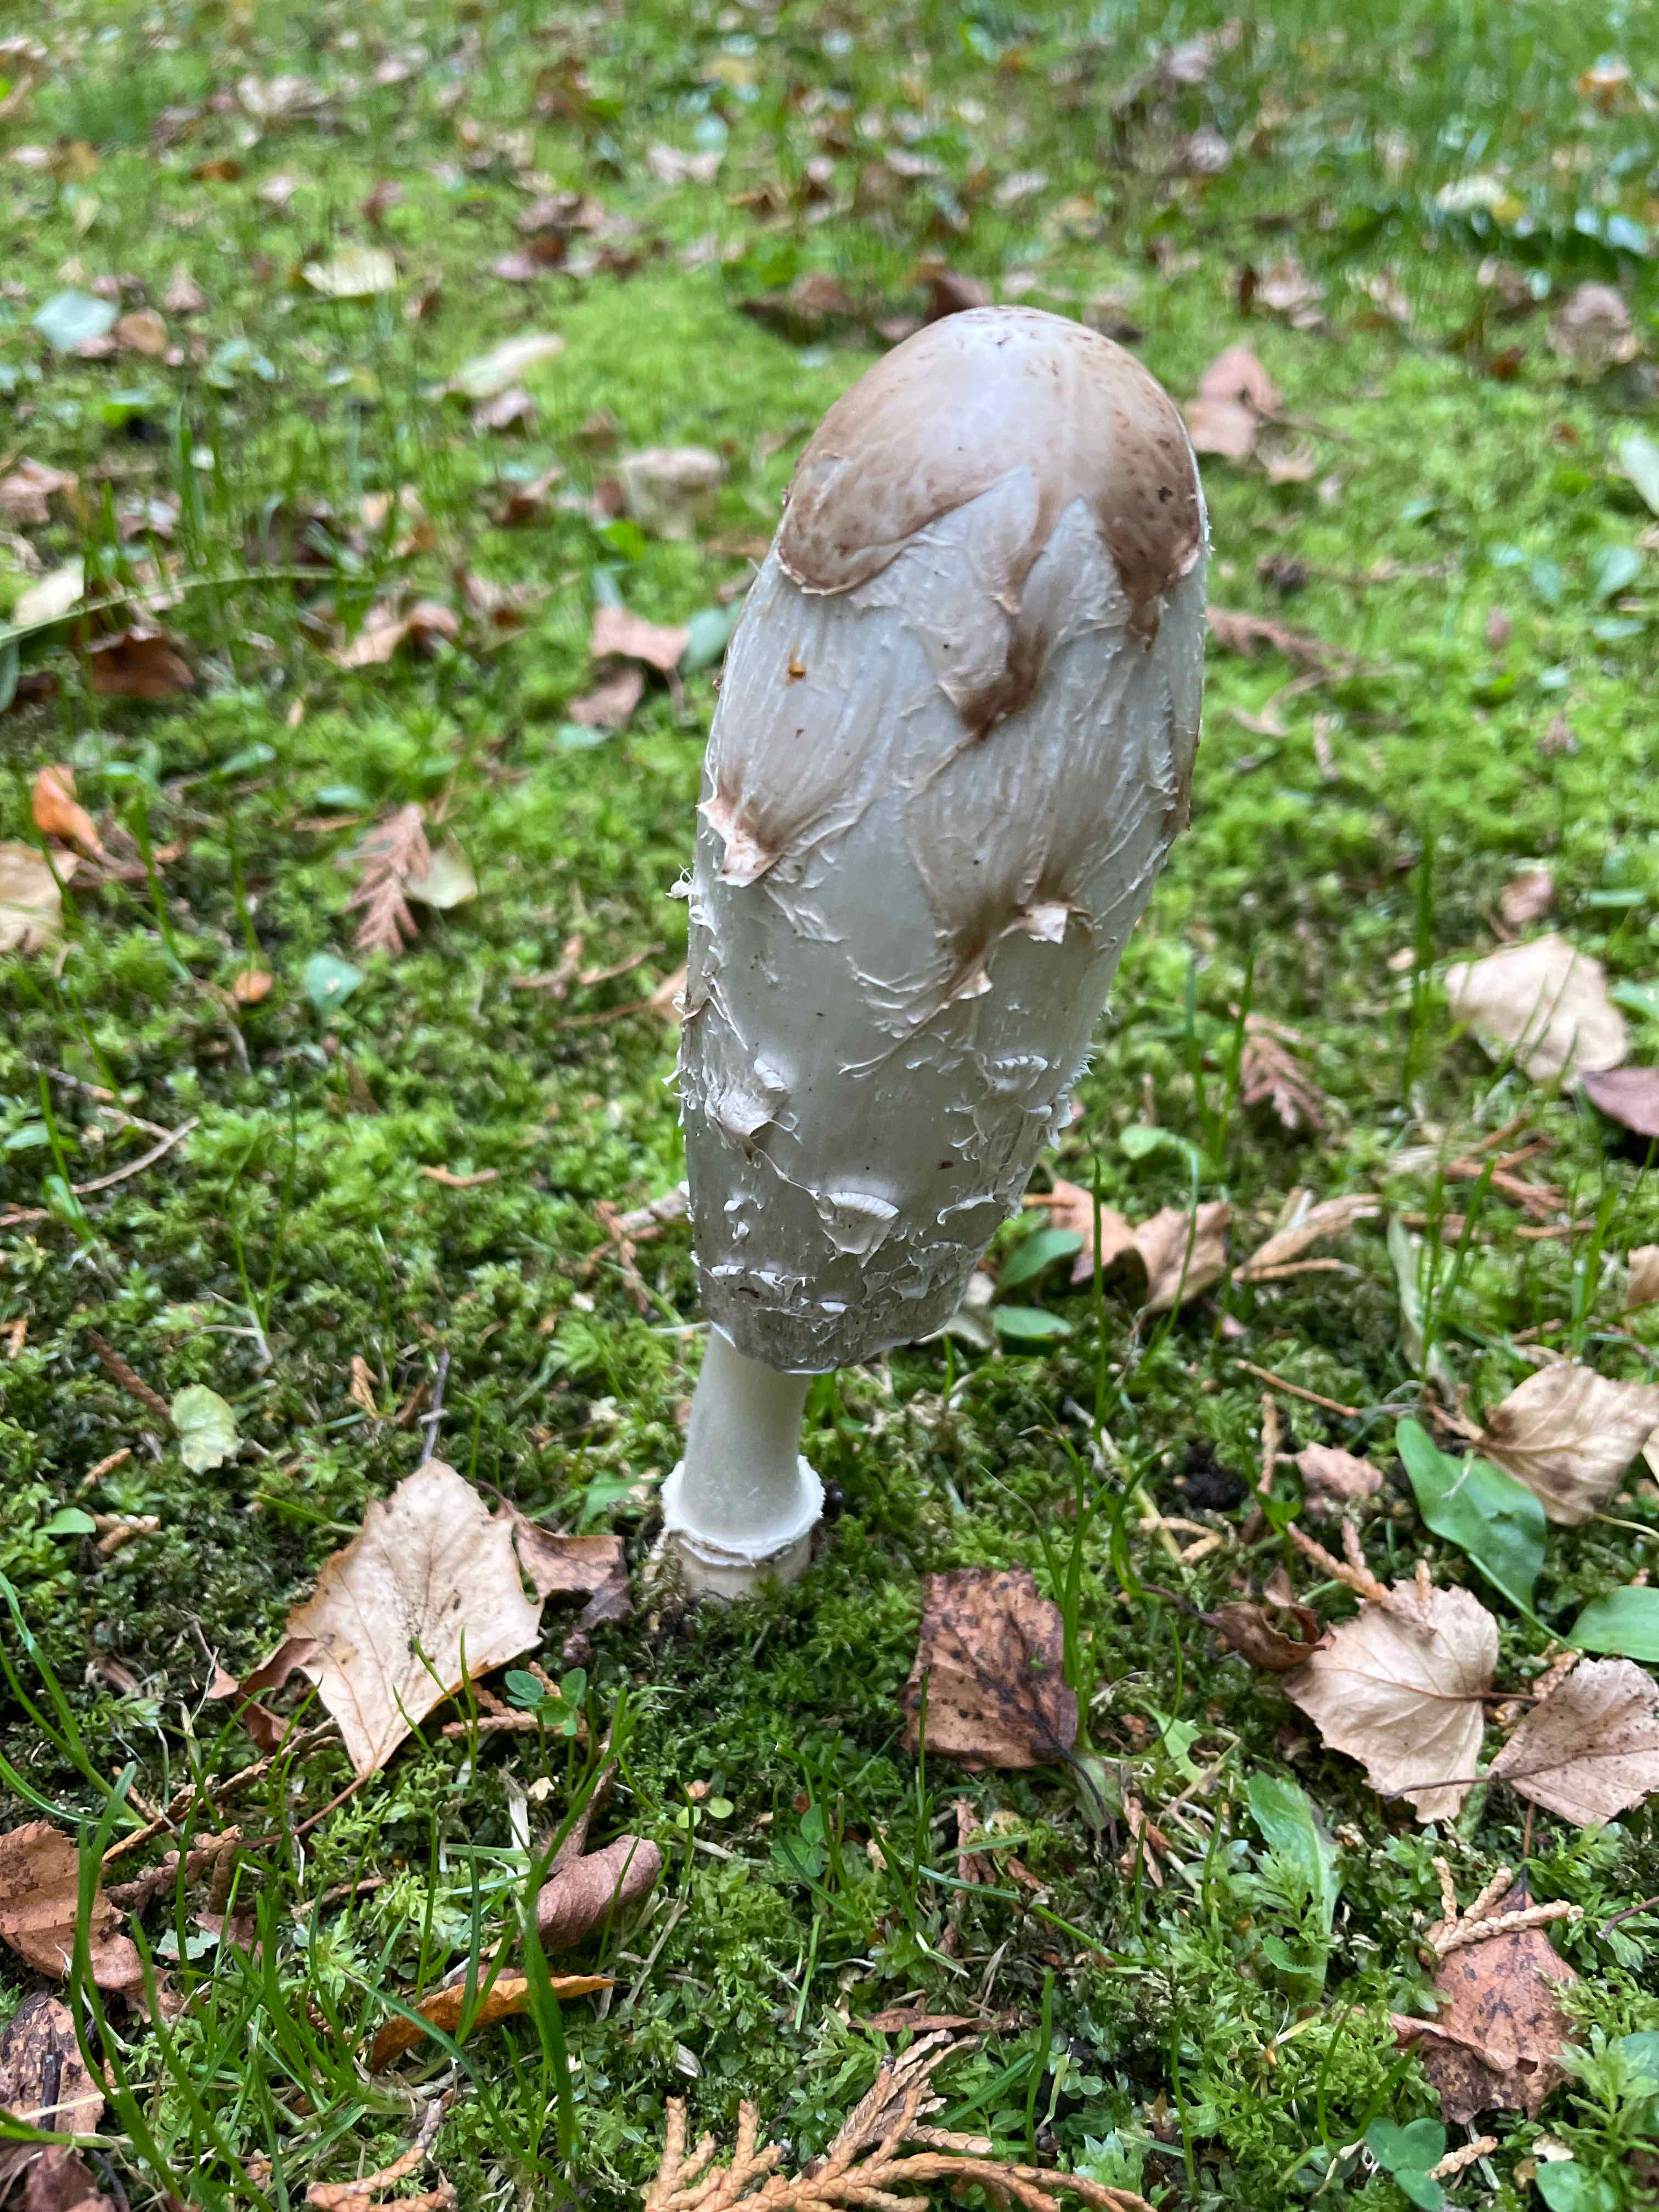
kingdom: Fungi
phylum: Basidiomycota
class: Agaricomycetes
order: Agaricales
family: Agaricaceae
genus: Coprinus
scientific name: Coprinus comatus
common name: stor parykhat
